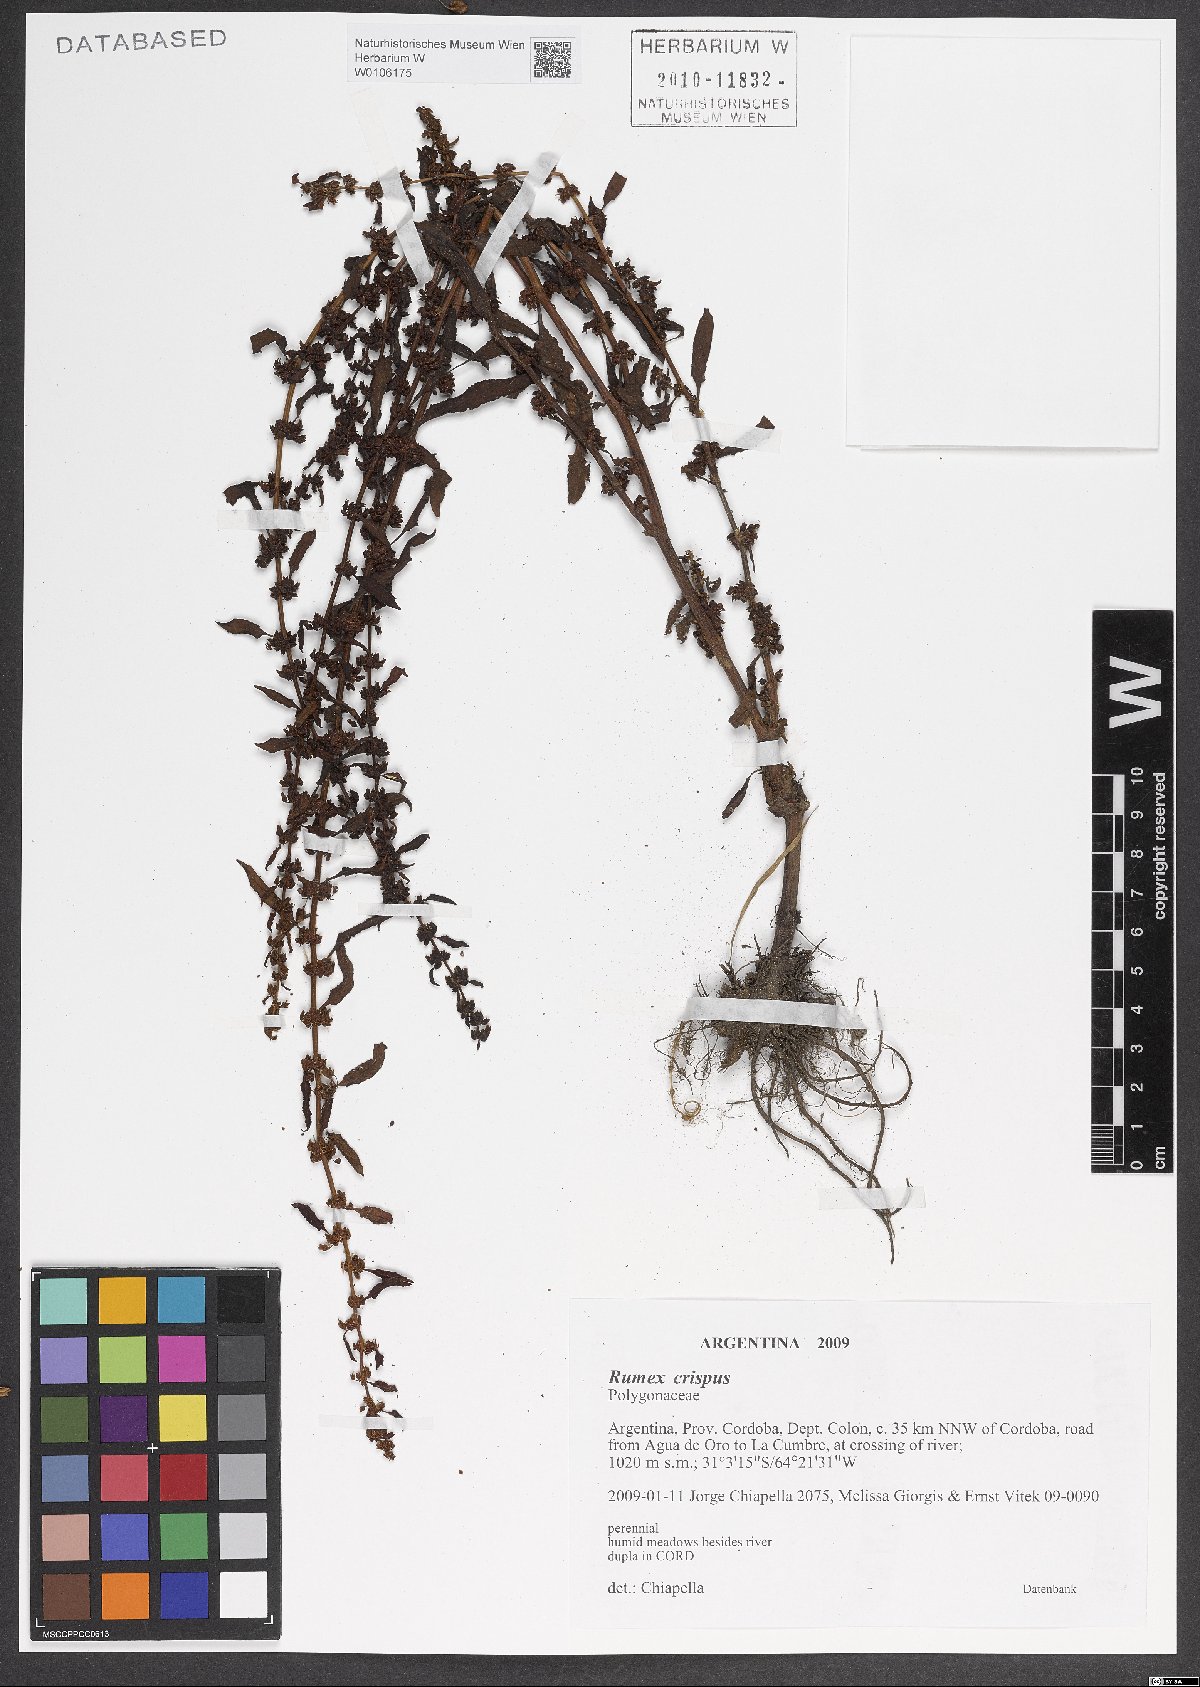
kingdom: Plantae
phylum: Tracheophyta
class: Magnoliopsida
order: Caryophyllales
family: Polygonaceae
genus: Rumex
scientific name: Rumex crispus
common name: Curled dock
